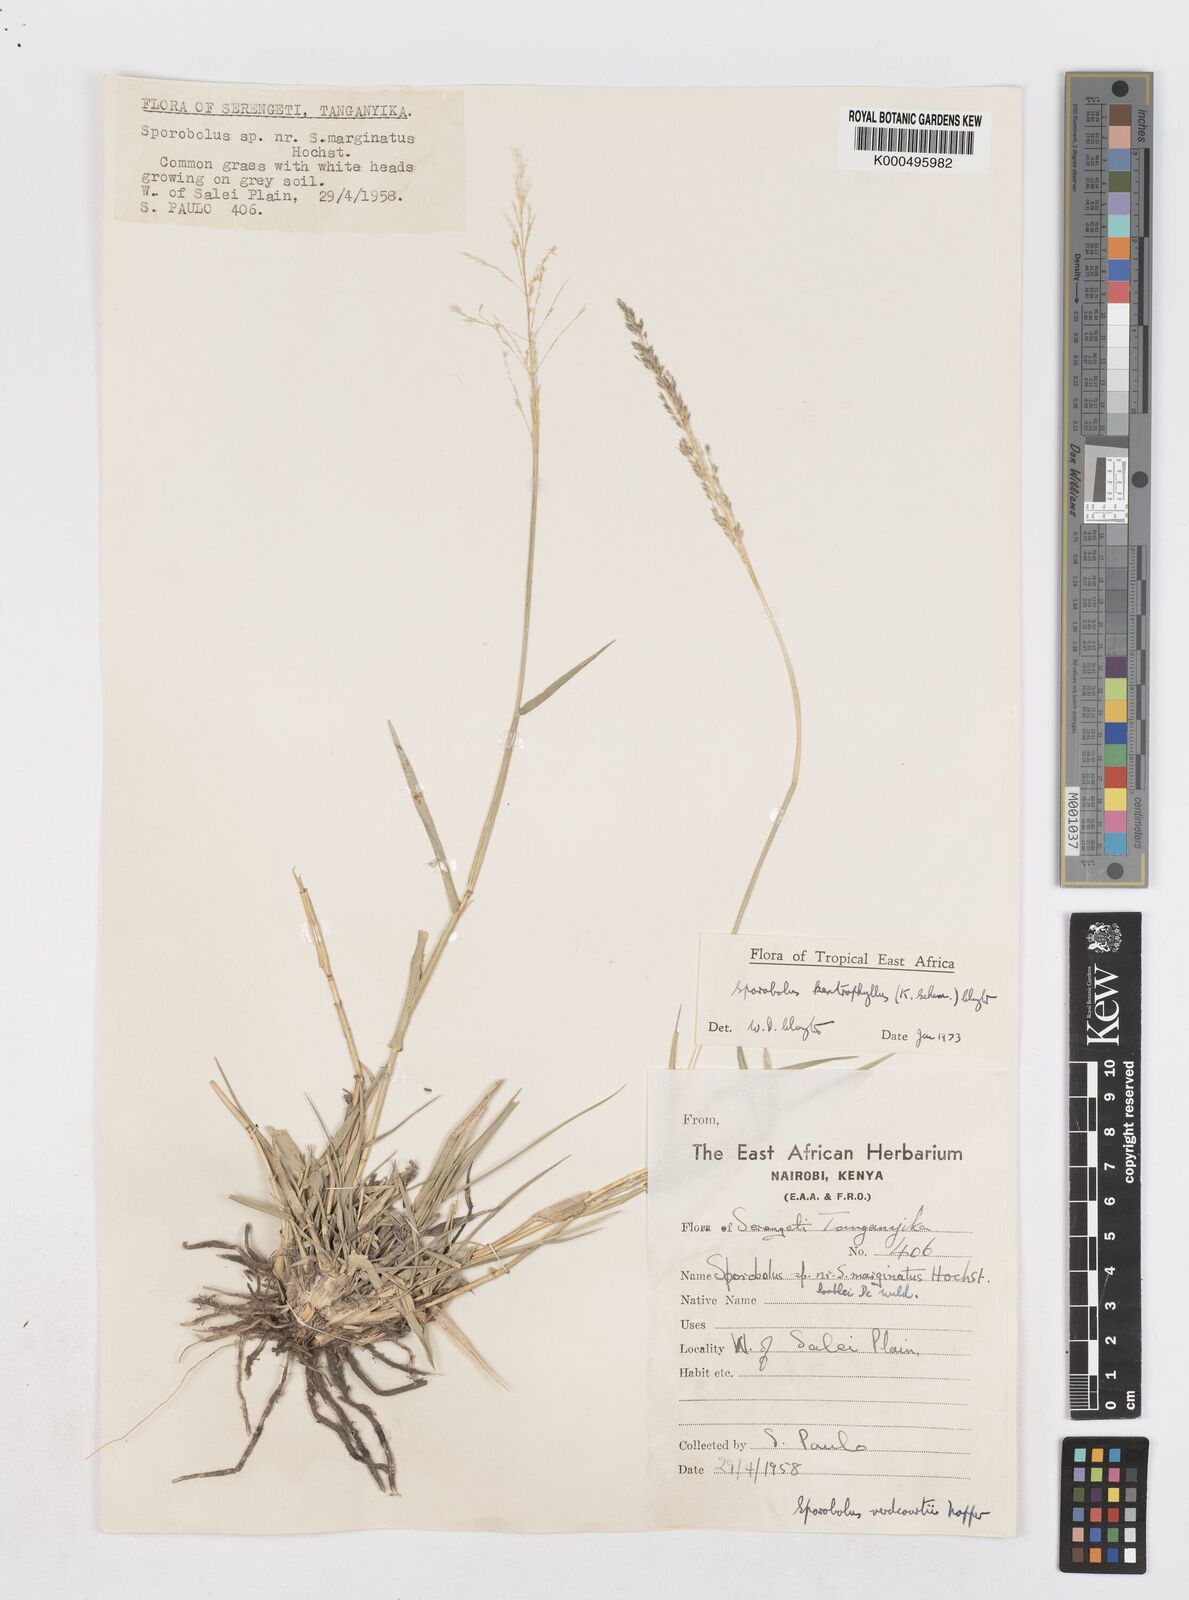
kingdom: Plantae
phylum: Tracheophyta
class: Liliopsida
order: Poales
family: Poaceae
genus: Sporobolus
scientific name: Sporobolus ioclados
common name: Pan dropseed
